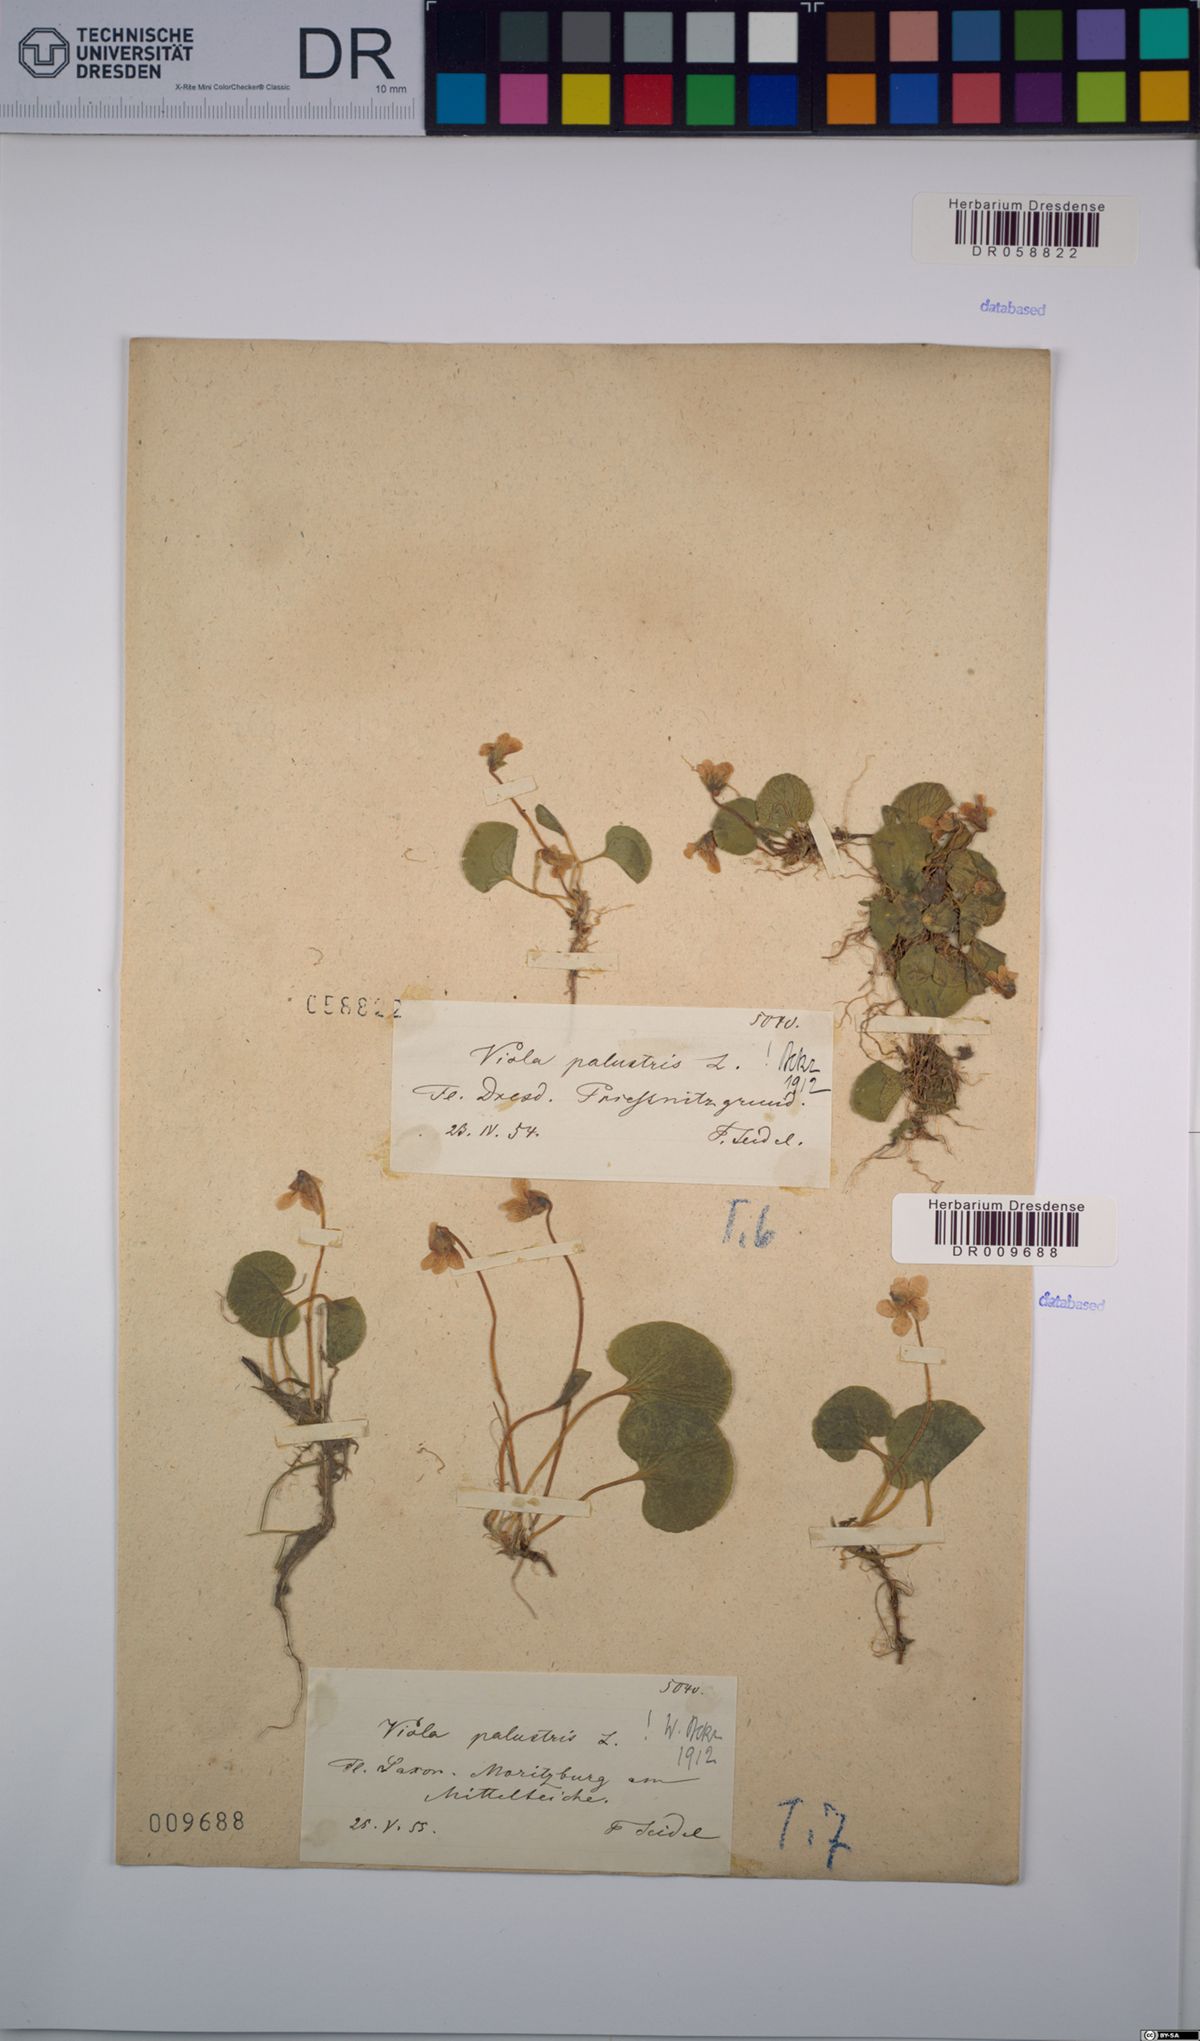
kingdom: Plantae
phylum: Tracheophyta
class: Magnoliopsida
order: Malpighiales
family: Violaceae
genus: Viola
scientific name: Viola palustris
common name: Marsh violet
